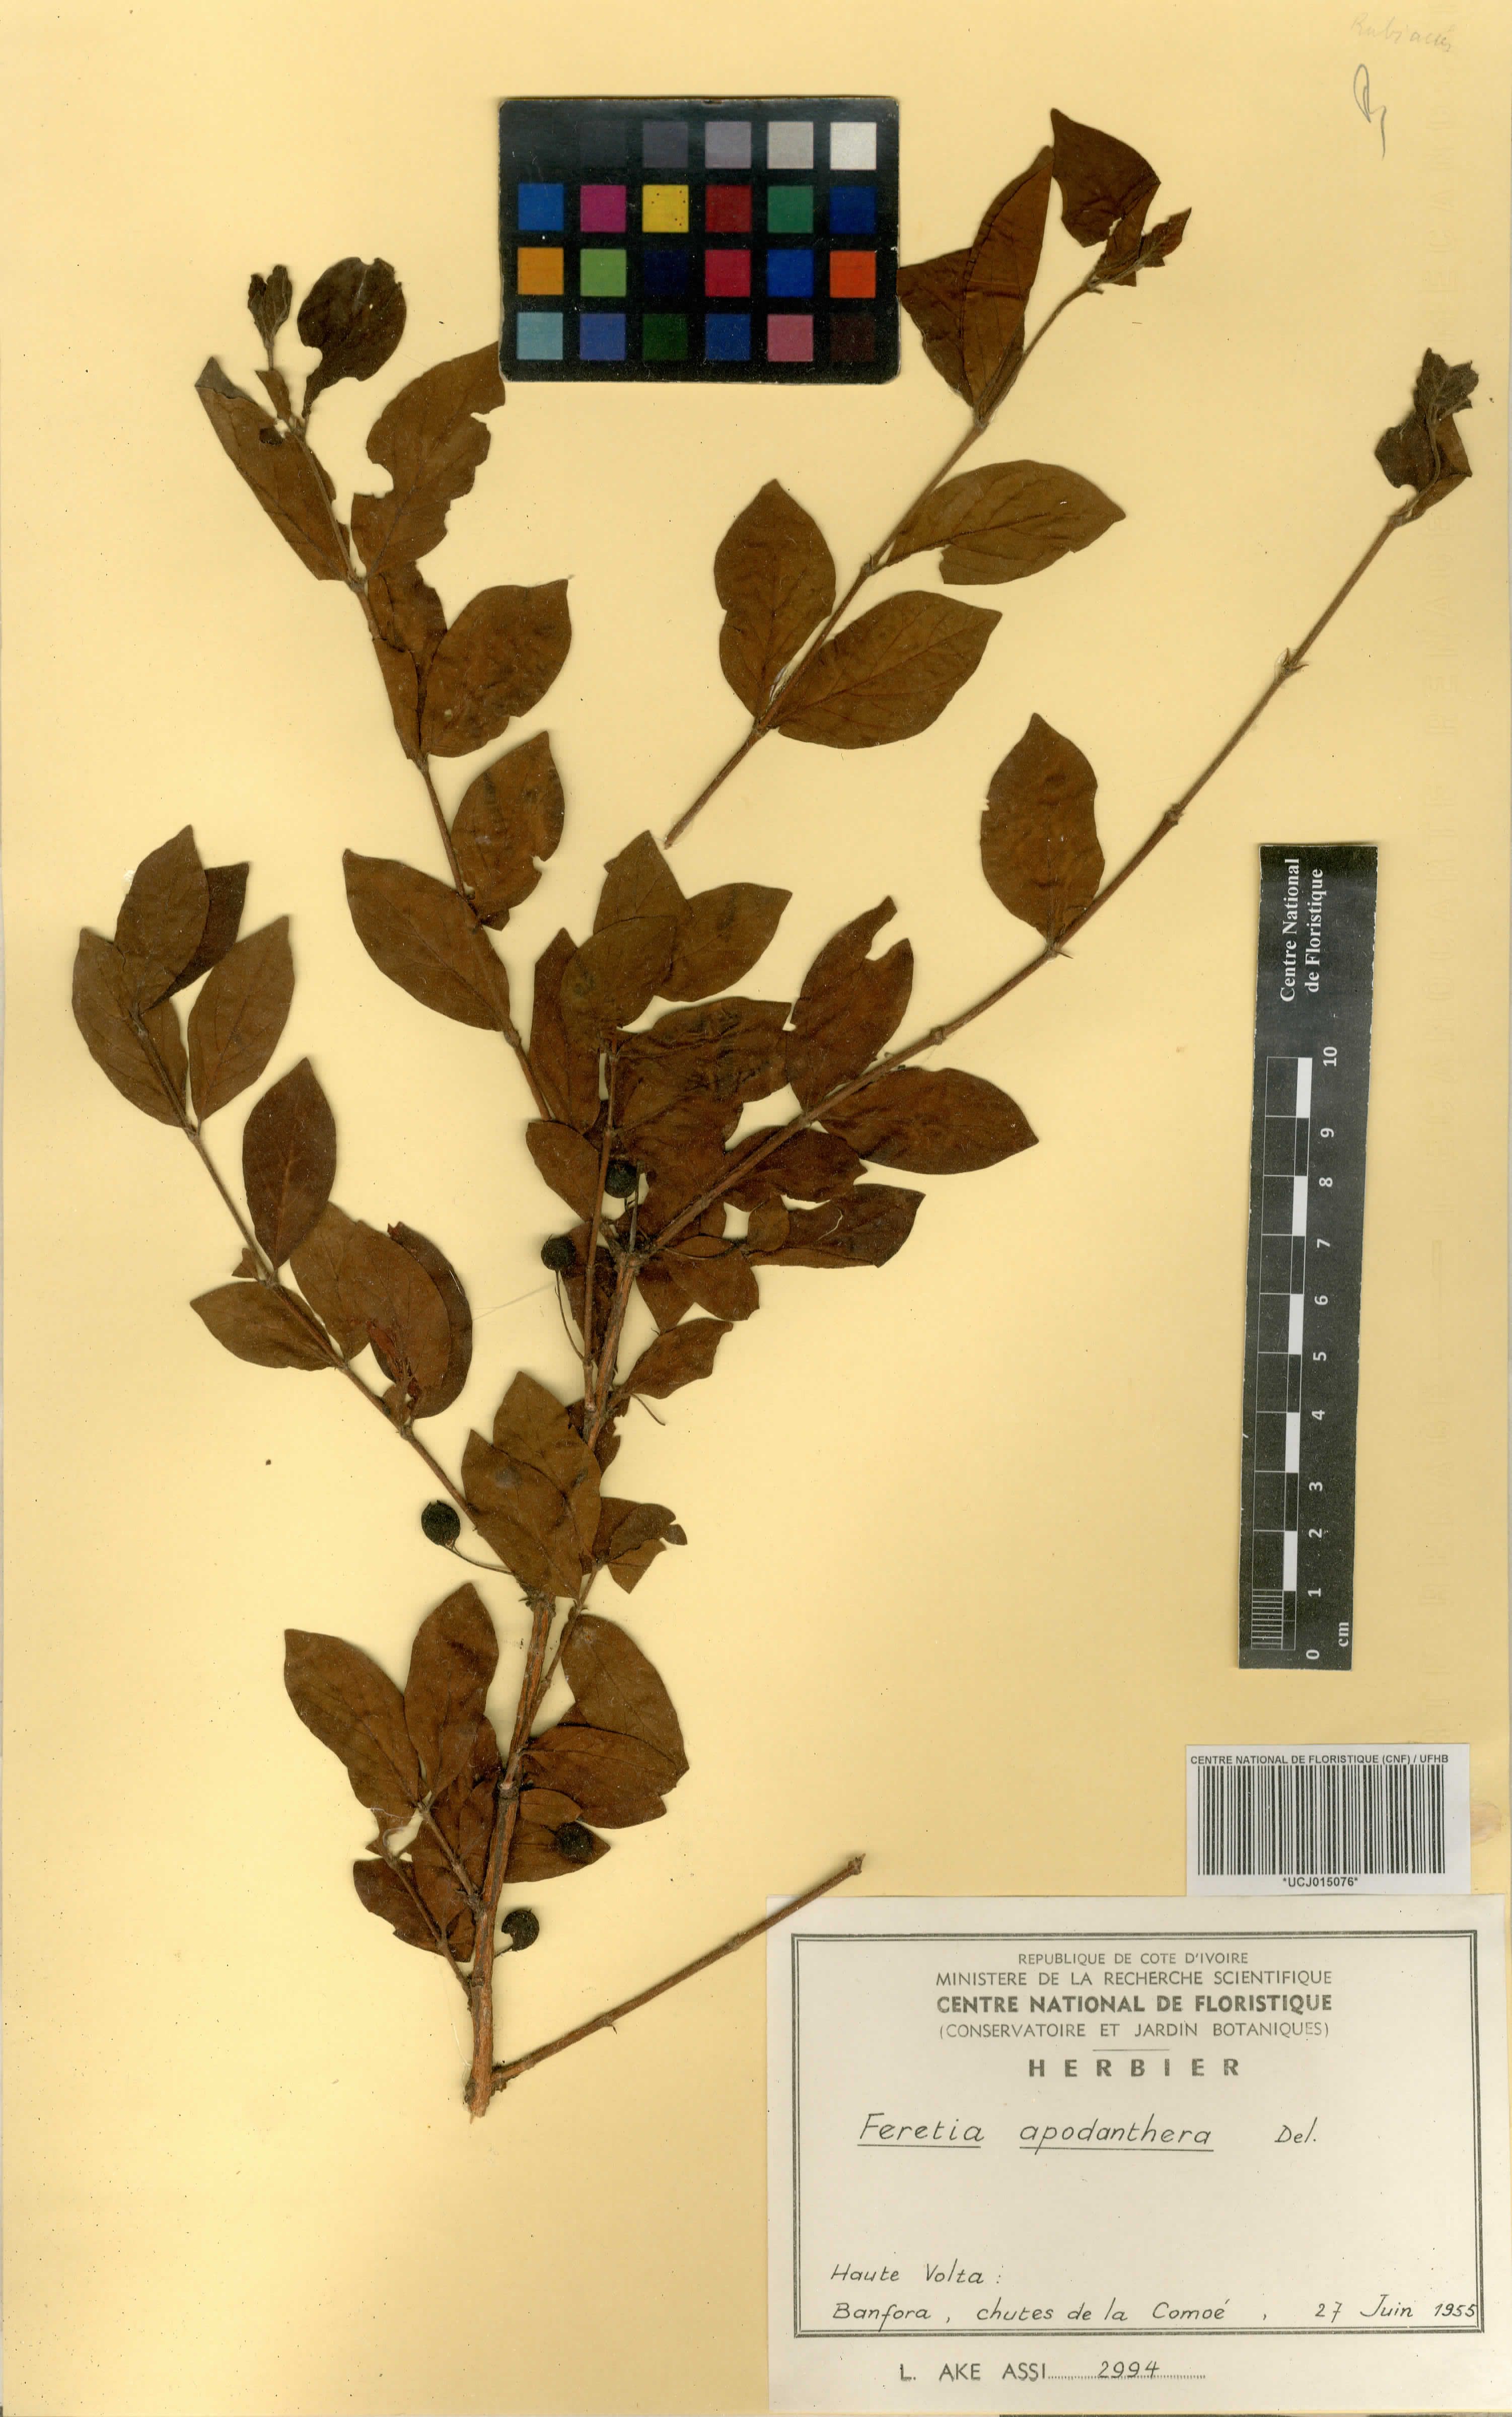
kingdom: Plantae
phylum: Tracheophyta
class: Magnoliopsida
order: Gentianales
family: Rubiaceae
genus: Feretia
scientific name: Feretia apodanthera
